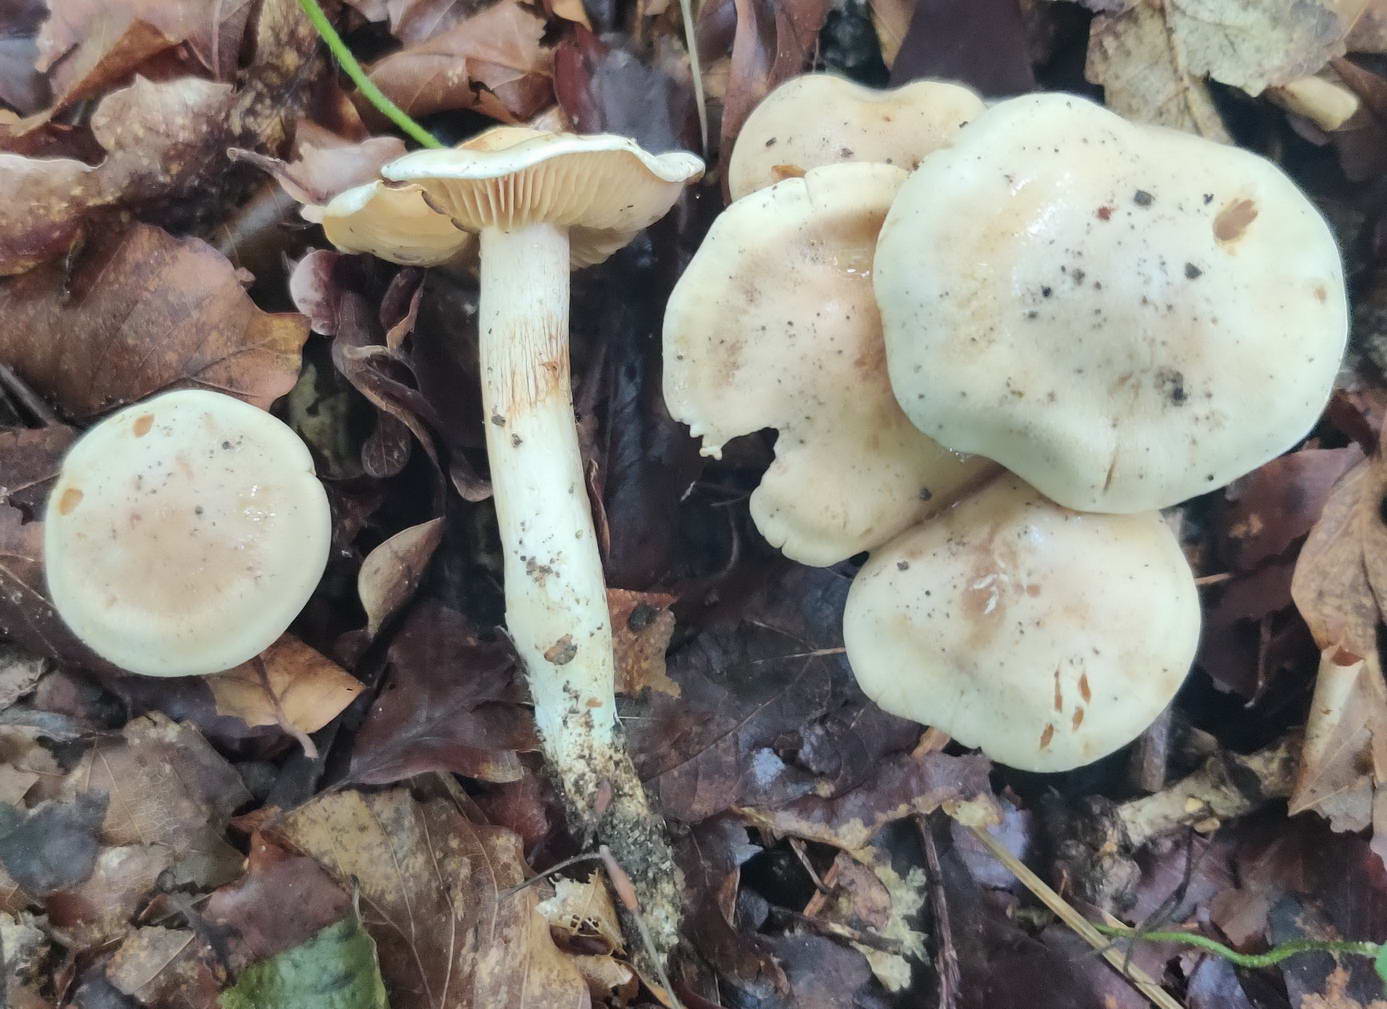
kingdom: Fungi
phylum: Basidiomycota
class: Agaricomycetes
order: Agaricales
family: Cortinariaceae
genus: Thaxterogaster
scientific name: Thaxterogaster barbatus
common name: elfenbens-slørhat
